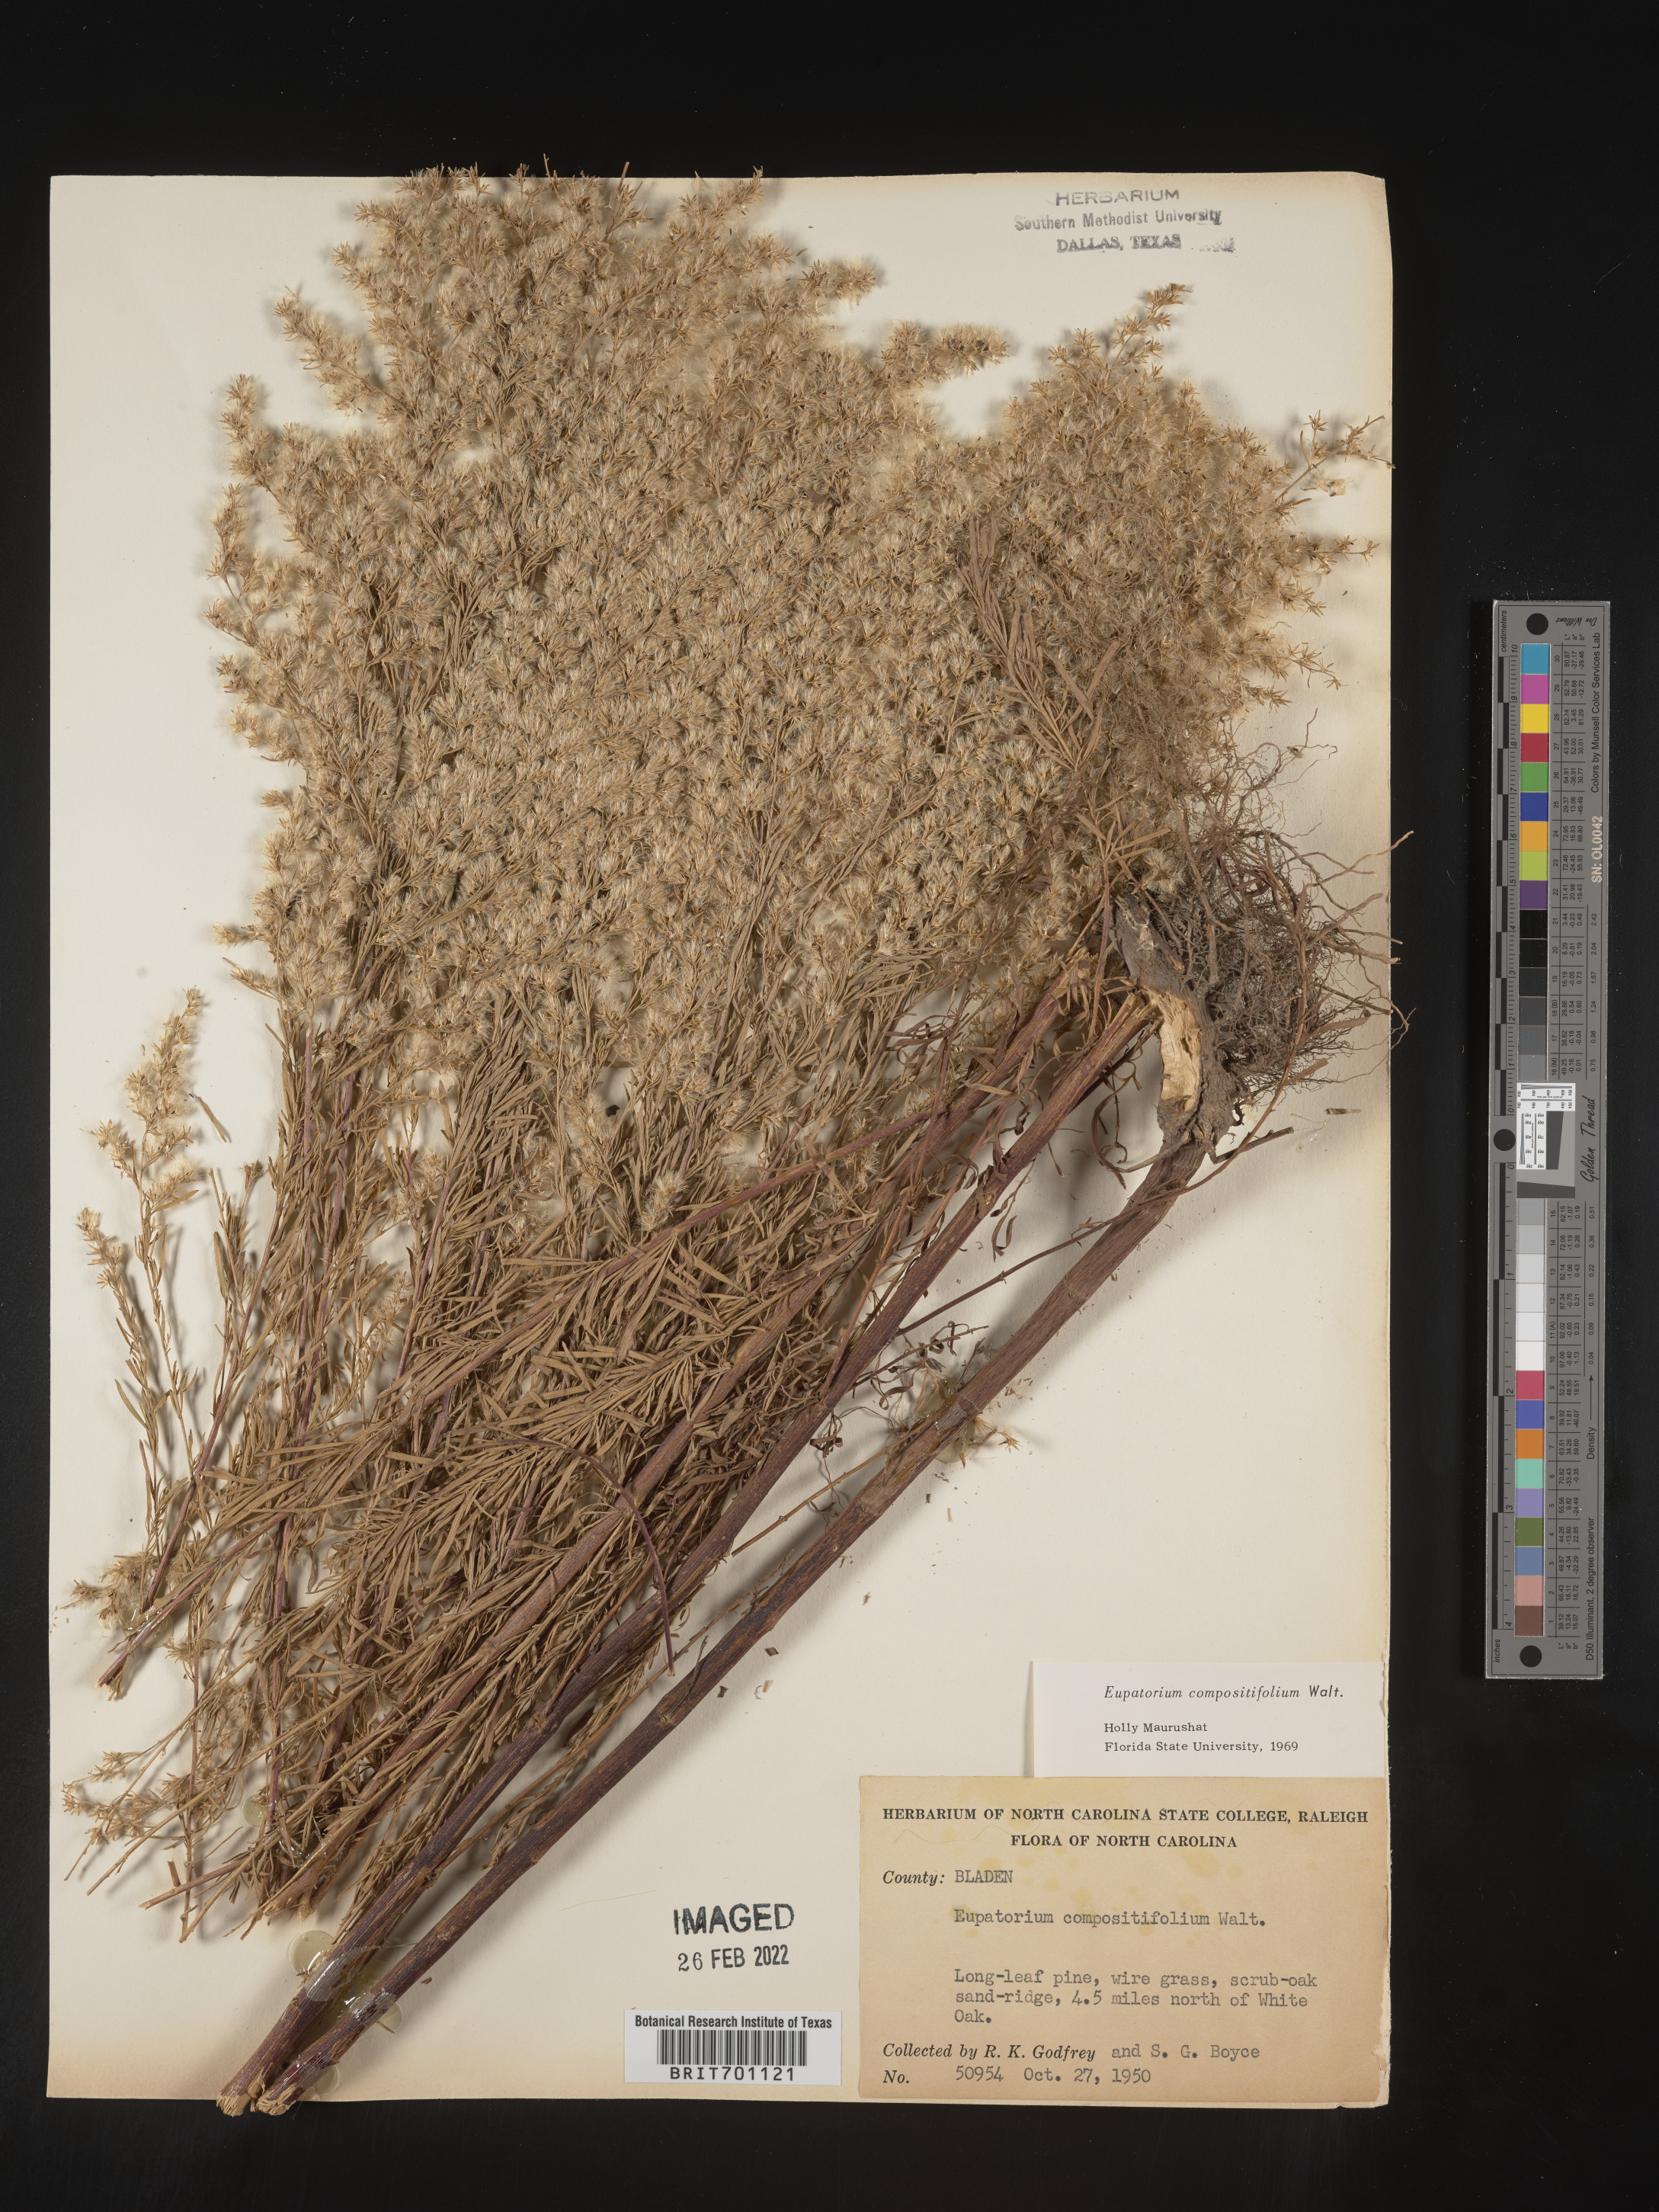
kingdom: Plantae
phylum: Tracheophyta
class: Magnoliopsida
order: Asterales
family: Asteraceae
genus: Eupatorium
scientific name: Eupatorium compositifolium
